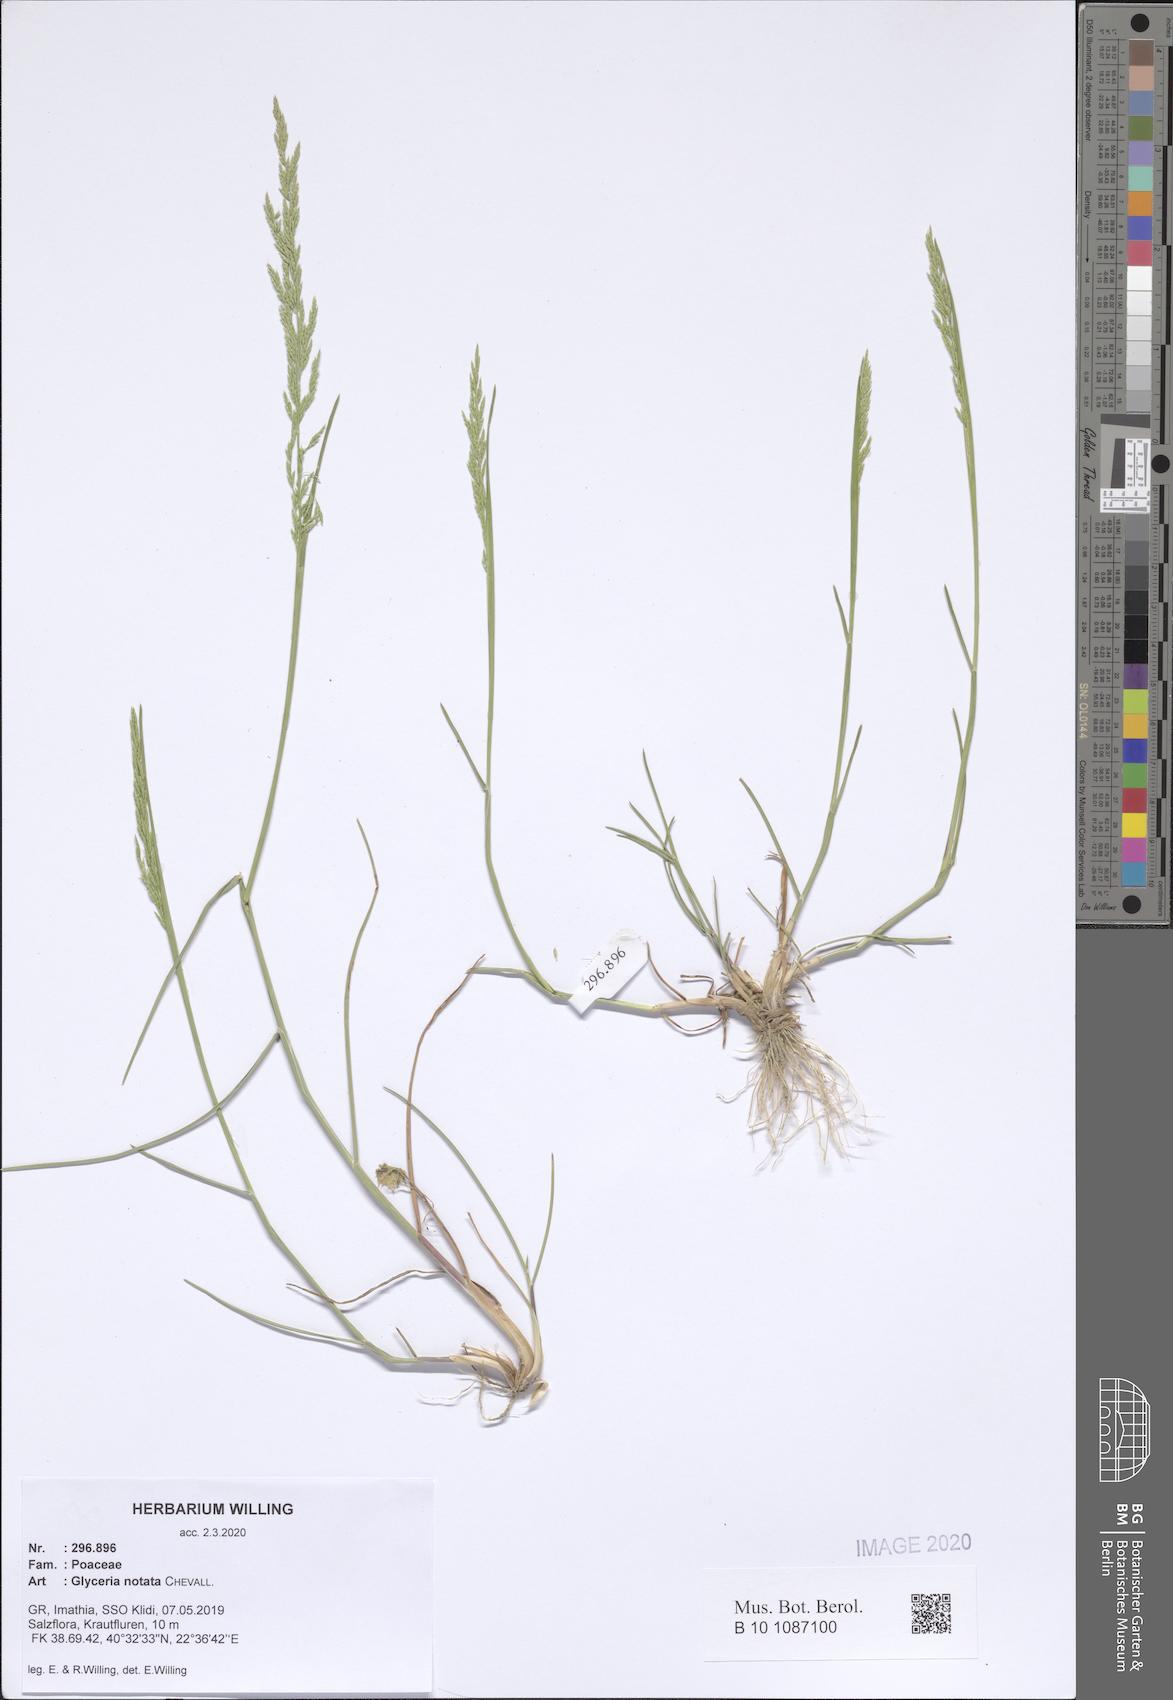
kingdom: Plantae
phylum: Tracheophyta
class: Liliopsida
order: Poales
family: Poaceae
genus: Glyceria
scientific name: Glyceria notata
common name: Plicate sweet-grass
